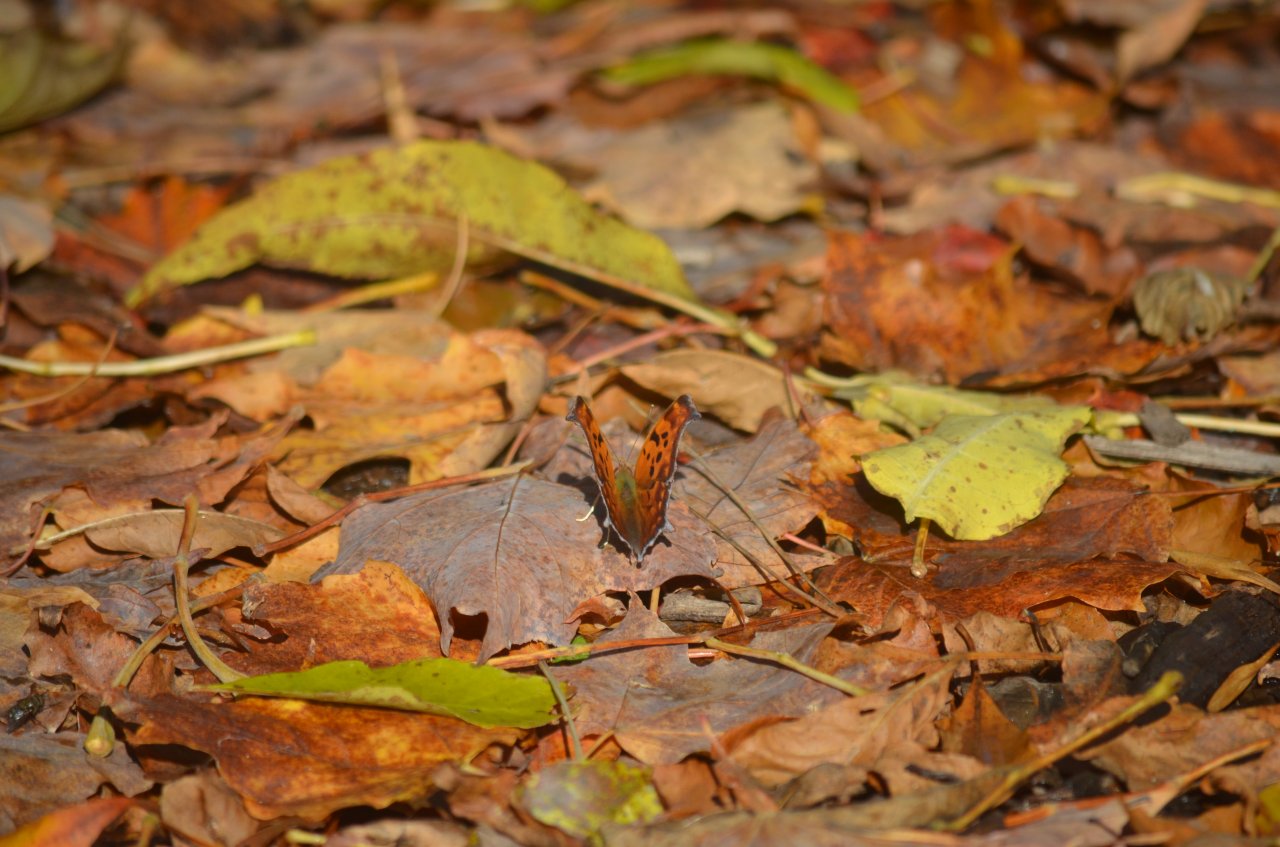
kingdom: Animalia
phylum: Arthropoda
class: Insecta
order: Lepidoptera
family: Nymphalidae
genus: Polygonia
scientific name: Polygonia interrogationis
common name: Question Mark
